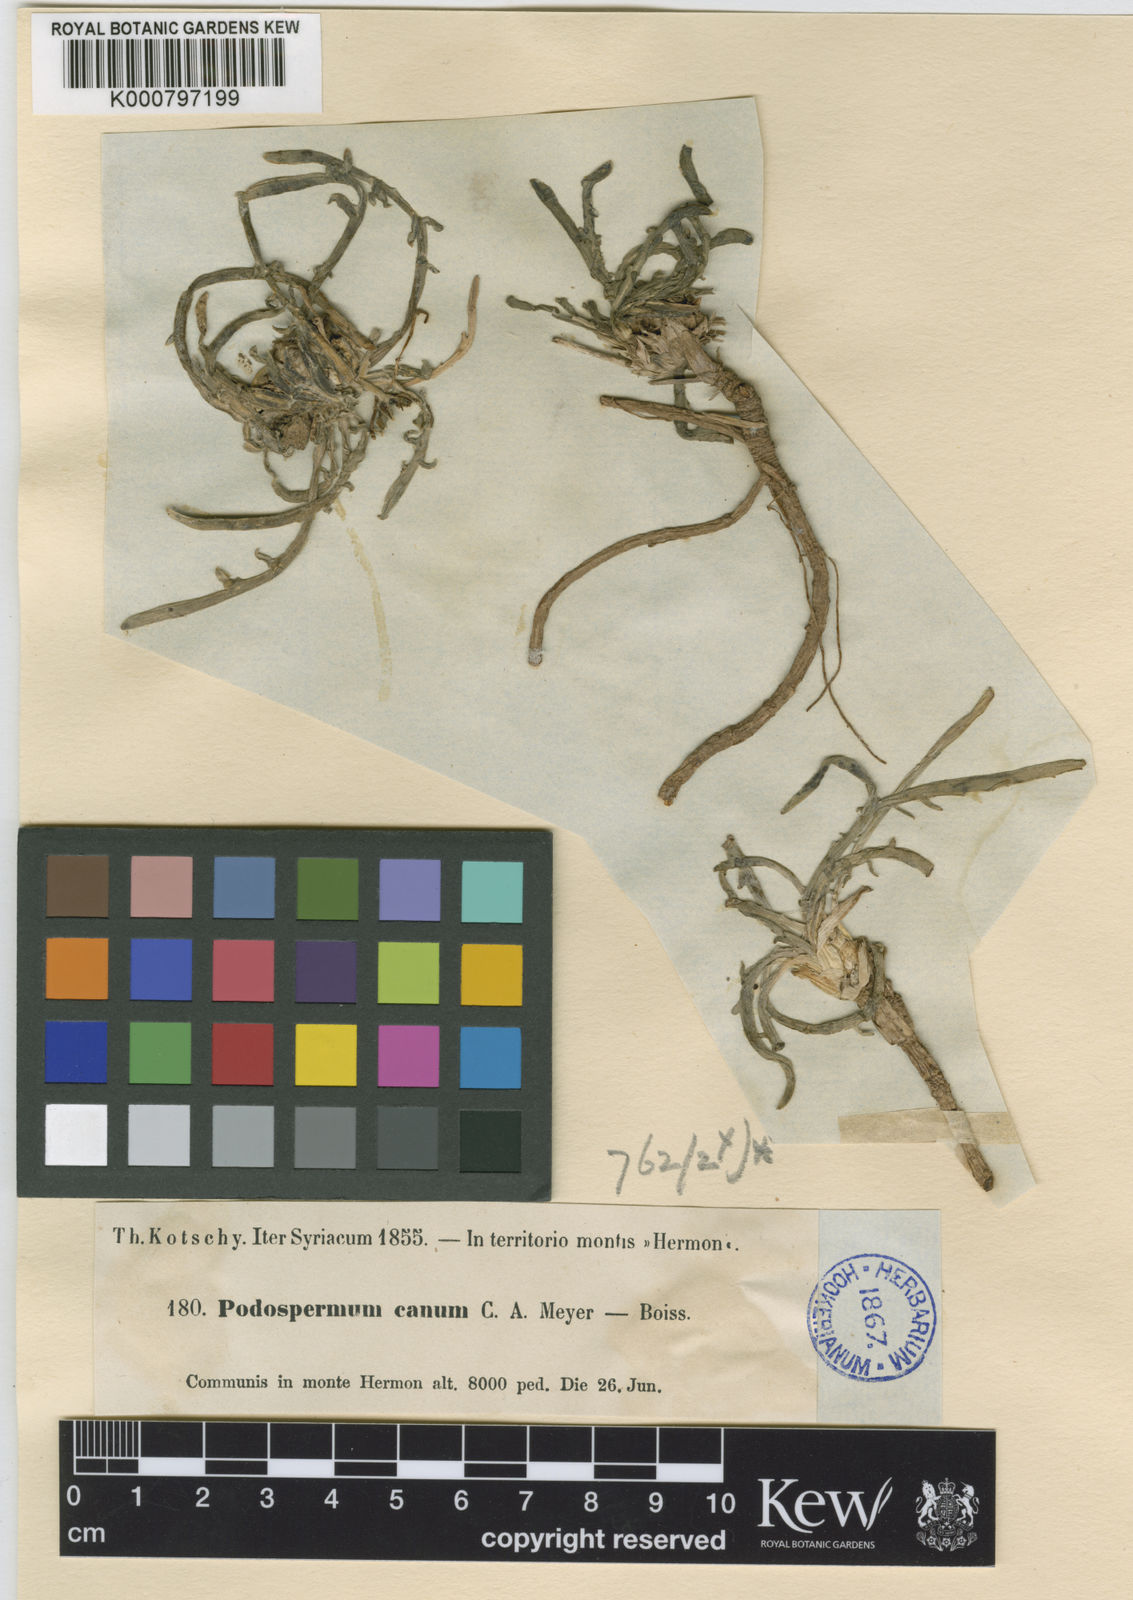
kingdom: Plantae
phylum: Tracheophyta
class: Magnoliopsida
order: Asterales
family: Asteraceae
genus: Scorzonera
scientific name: Scorzonera cana
